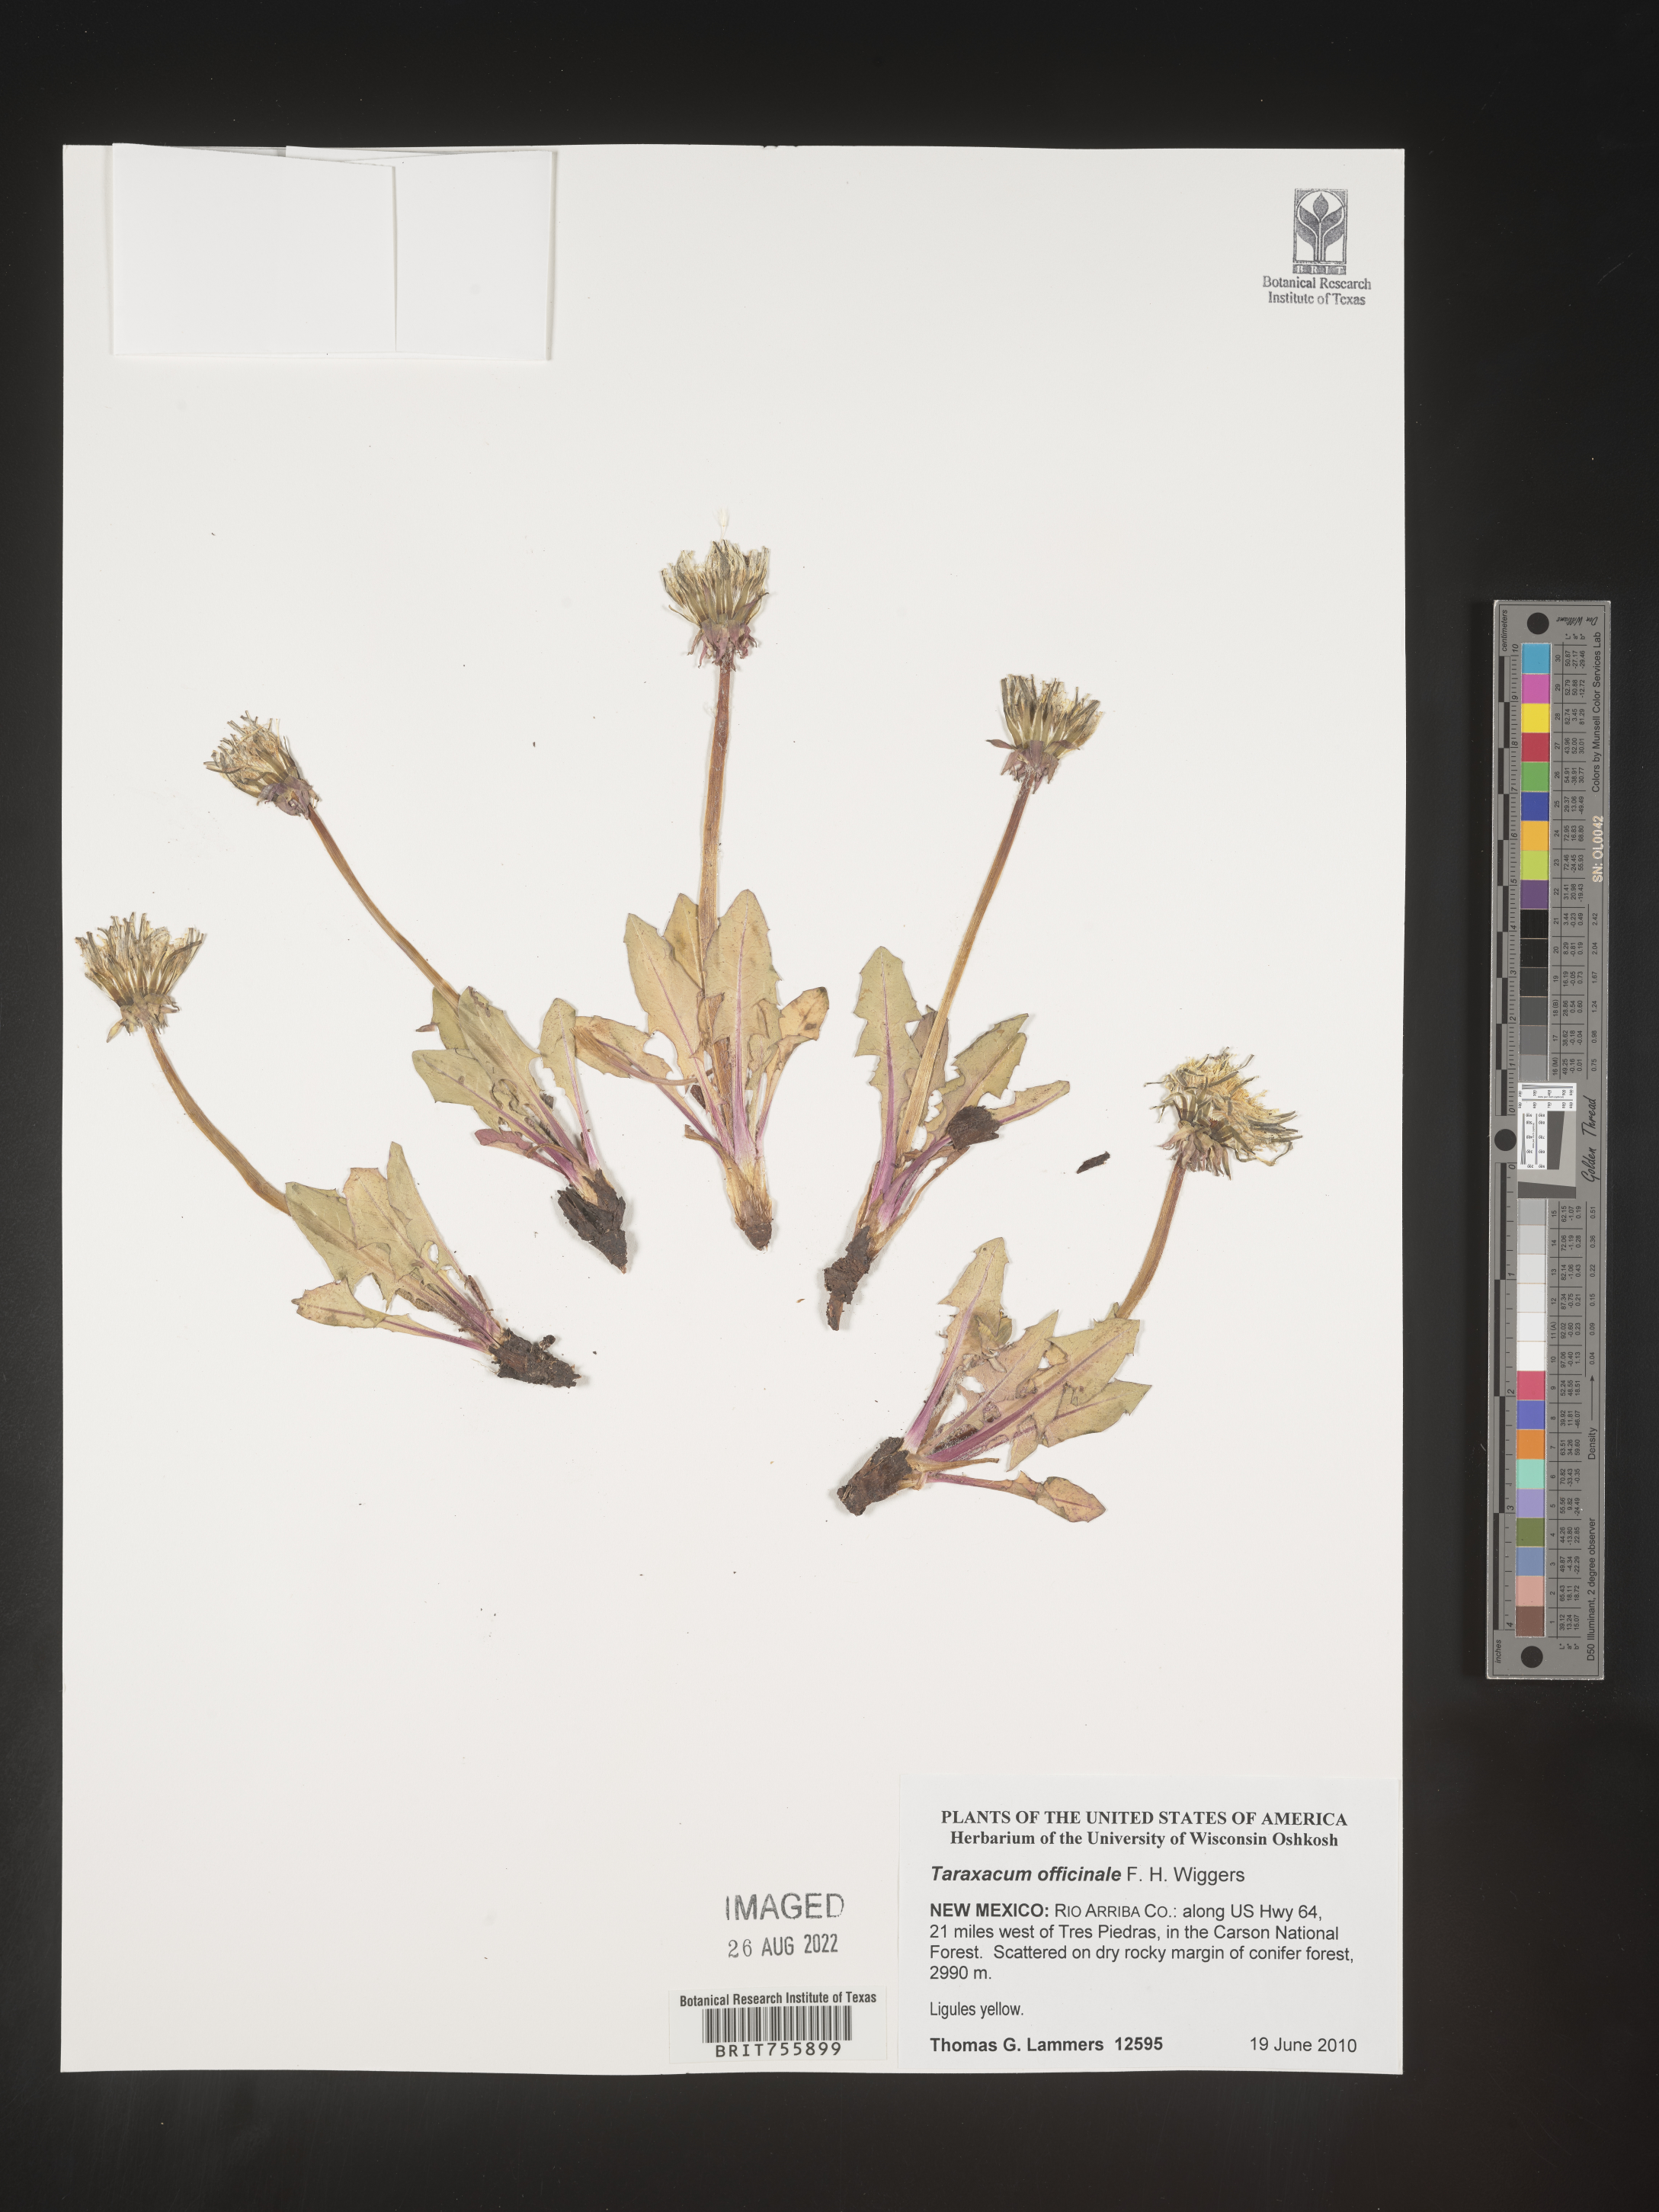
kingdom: Plantae
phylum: Tracheophyta
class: Magnoliopsida
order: Asterales
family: Asteraceae
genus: Taraxacum
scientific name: Taraxacum officinale
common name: Common dandelion
